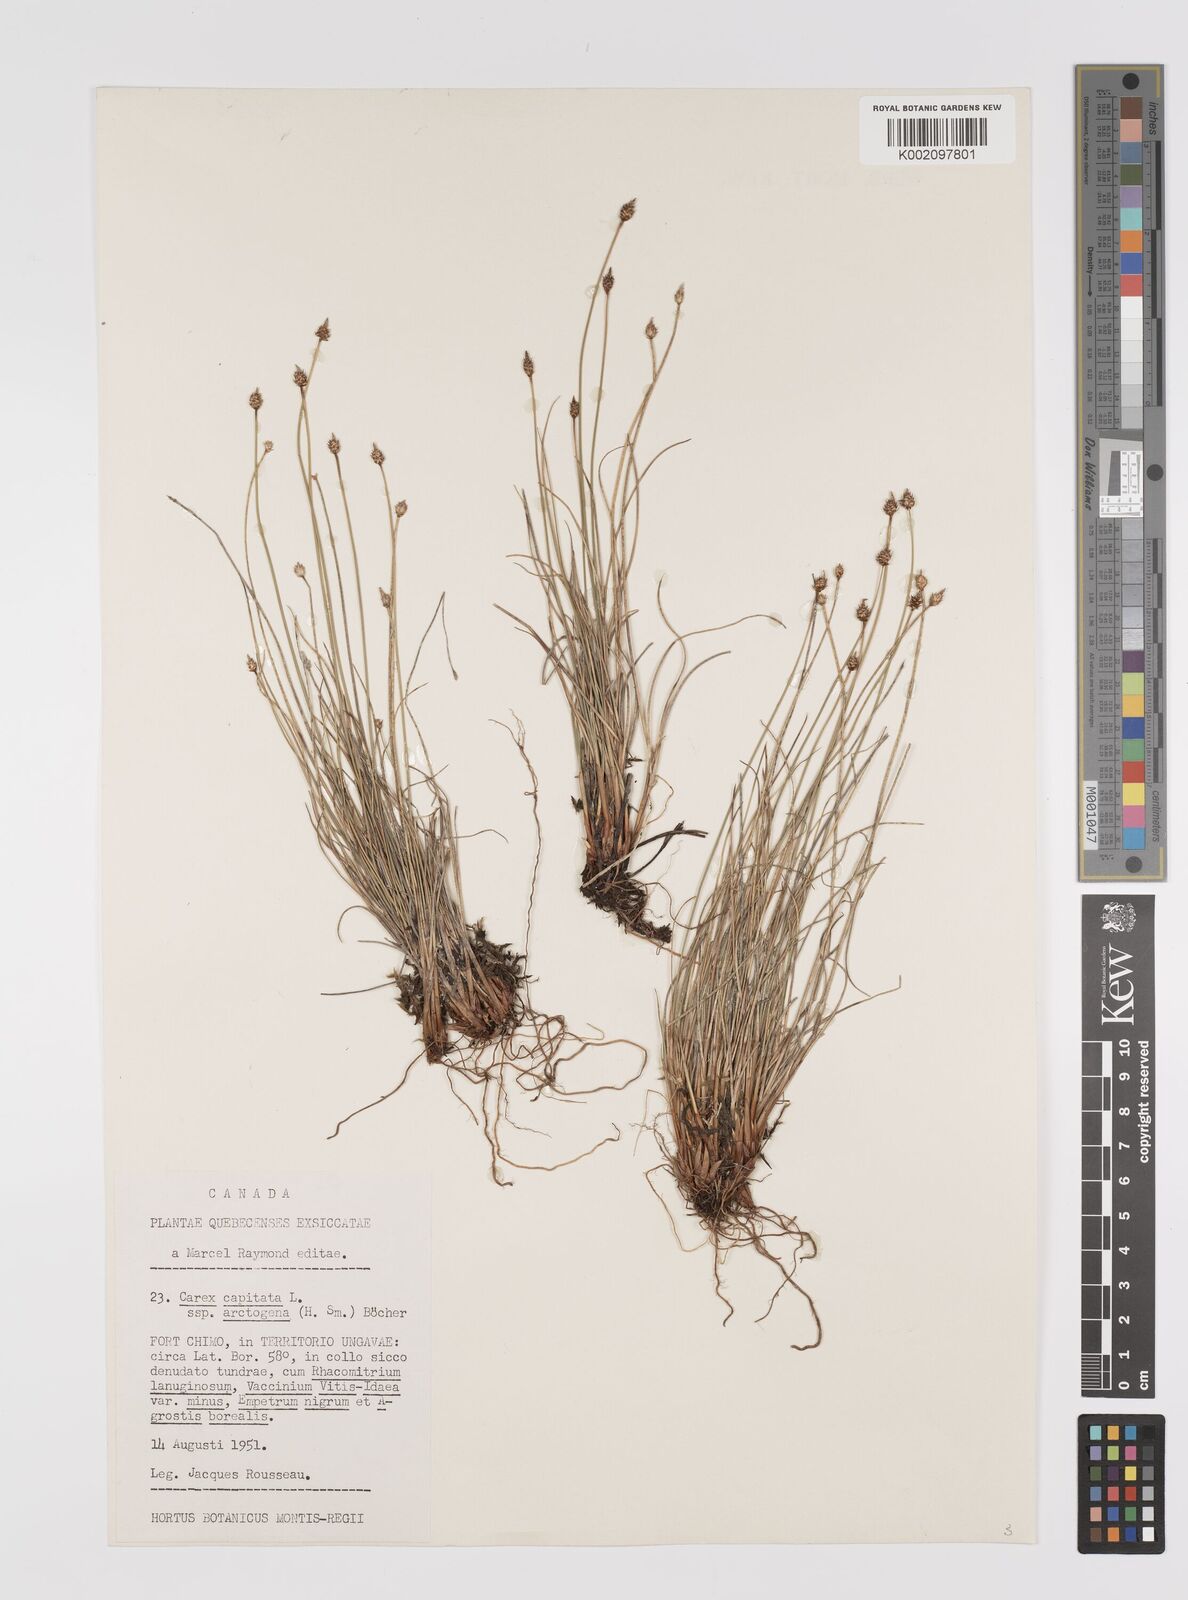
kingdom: Plantae
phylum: Tracheophyta
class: Liliopsida
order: Poales
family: Cyperaceae
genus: Carex
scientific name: Carex arctogena
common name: Black sedge
